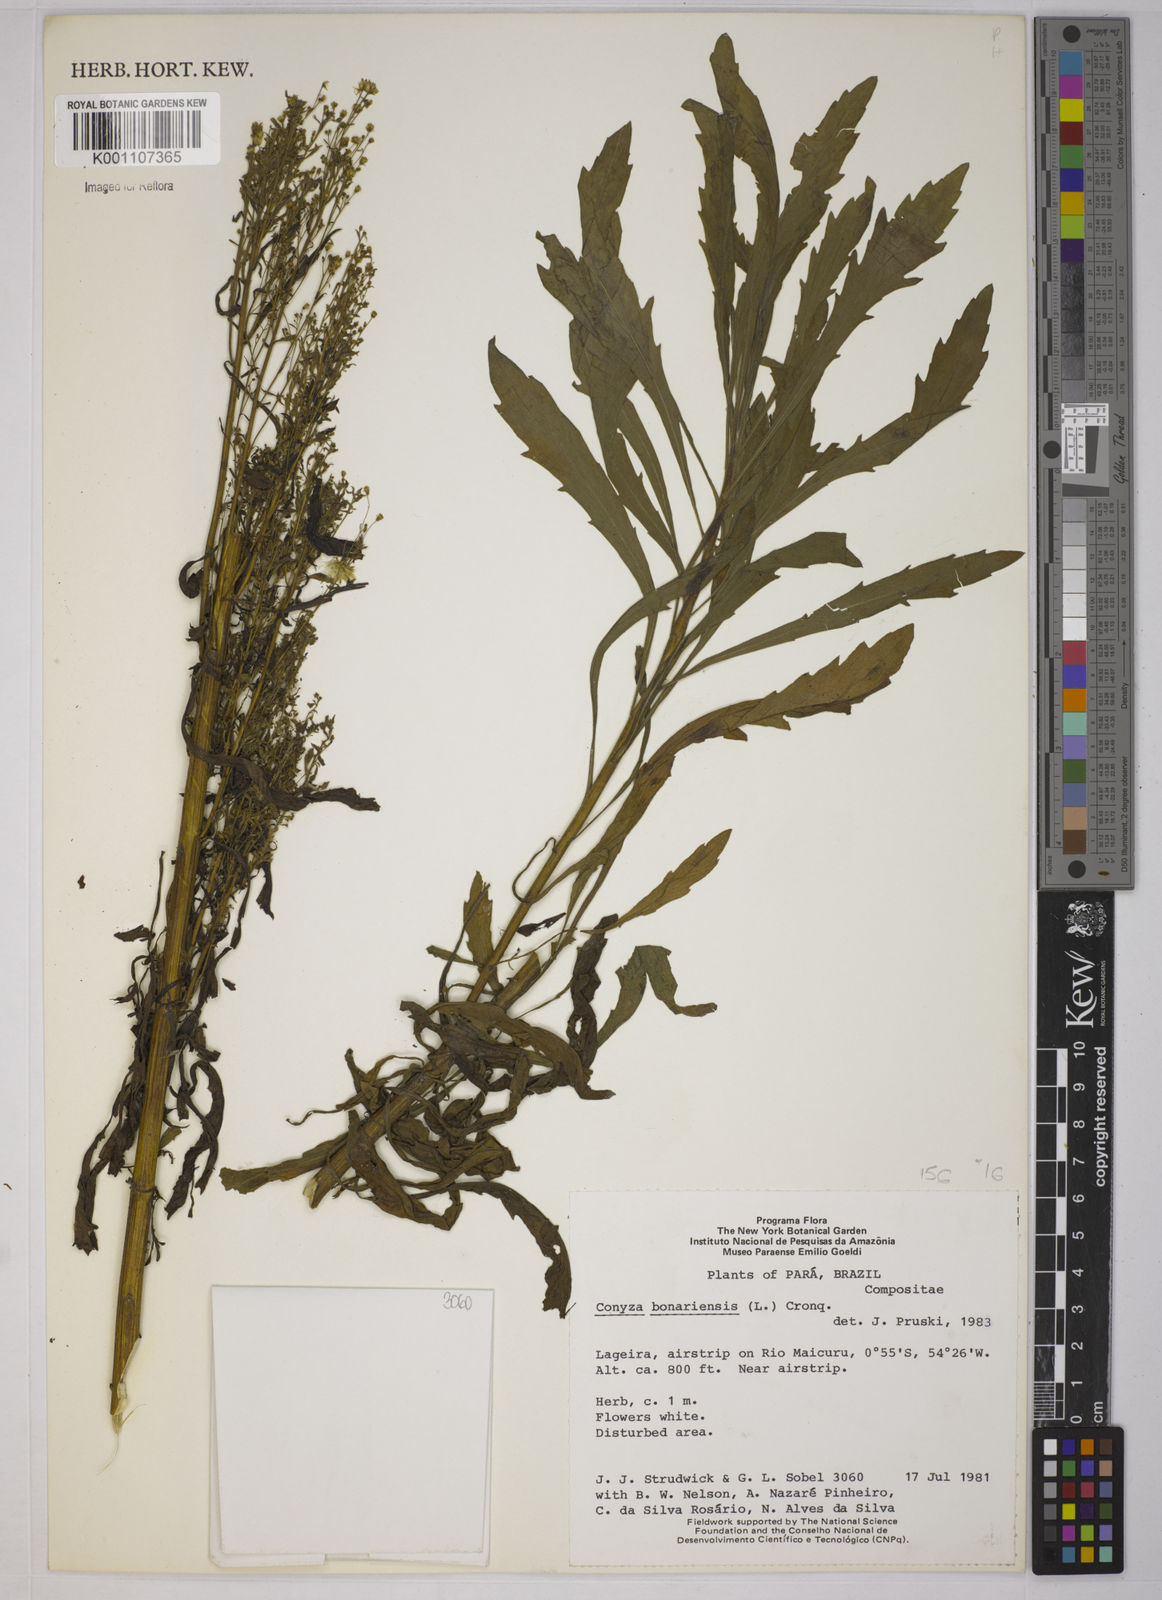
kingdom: Plantae
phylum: Tracheophyta
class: Magnoliopsida
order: Asterales
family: Asteraceae
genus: Erigeron
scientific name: Erigeron bonariensis
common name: Argentine fleabane
